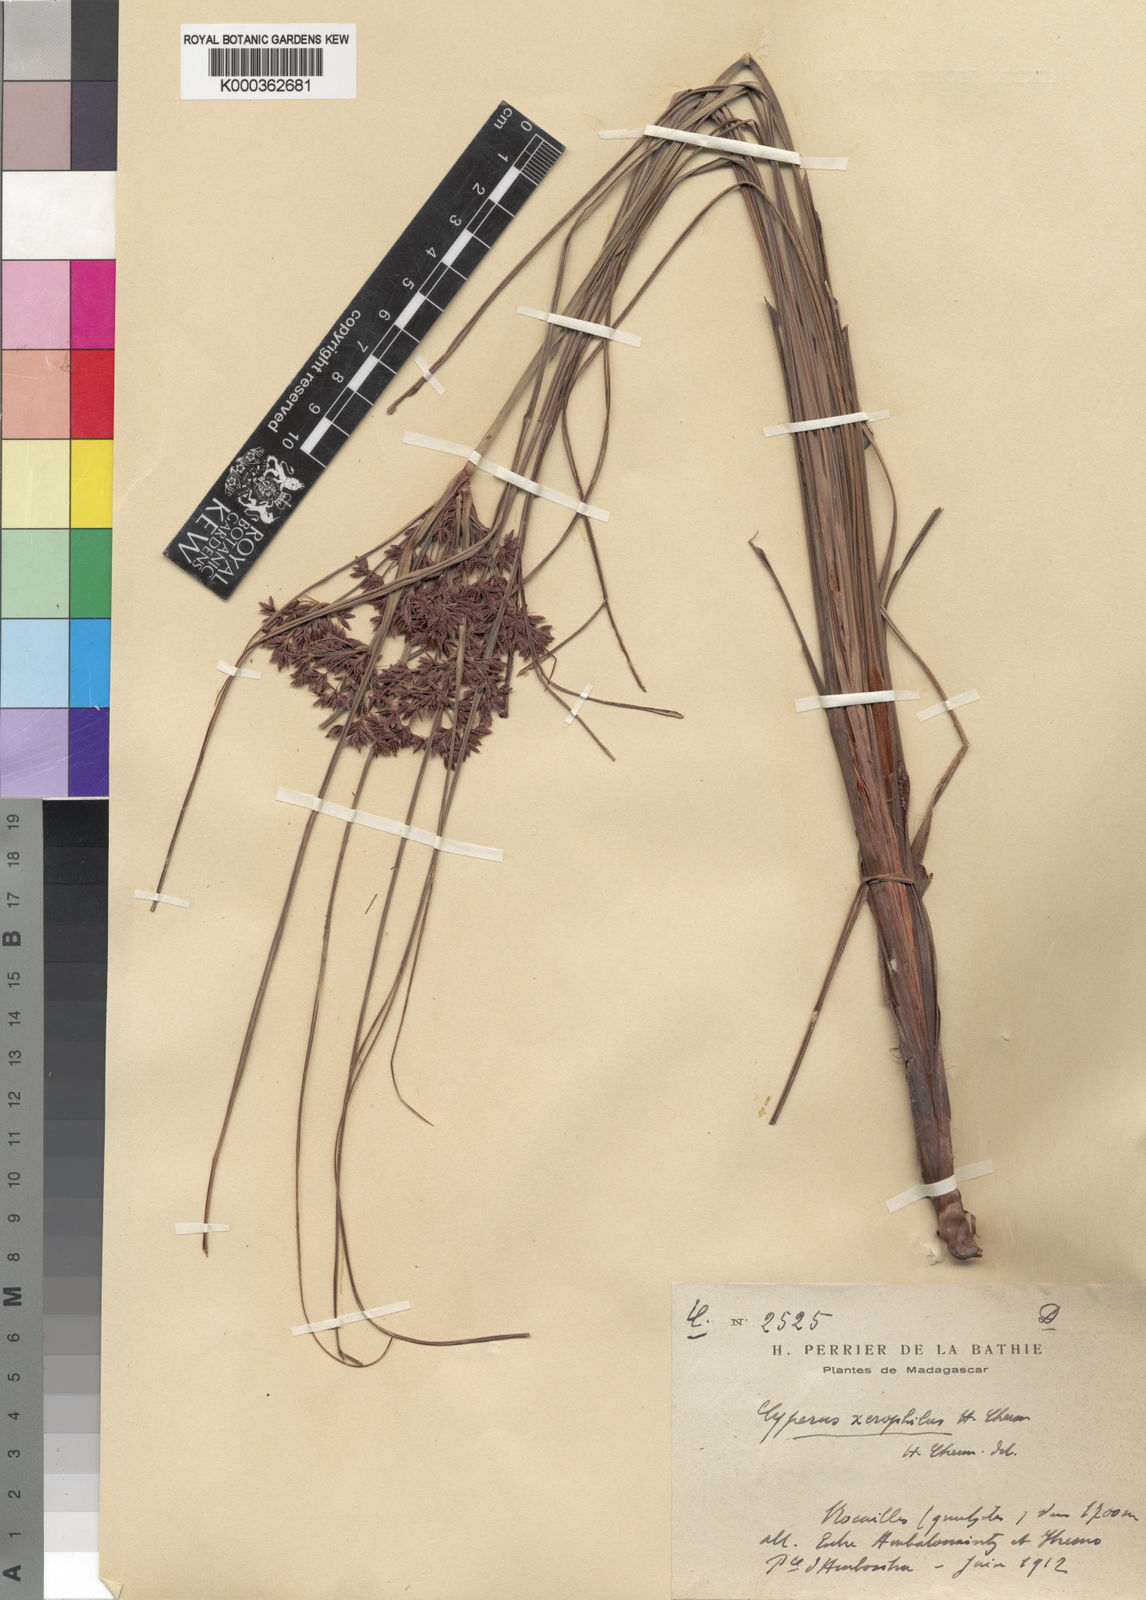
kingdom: Plantae
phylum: Tracheophyta
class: Liliopsida
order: Poales
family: Cyperaceae
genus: Cyperus
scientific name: Cyperus
